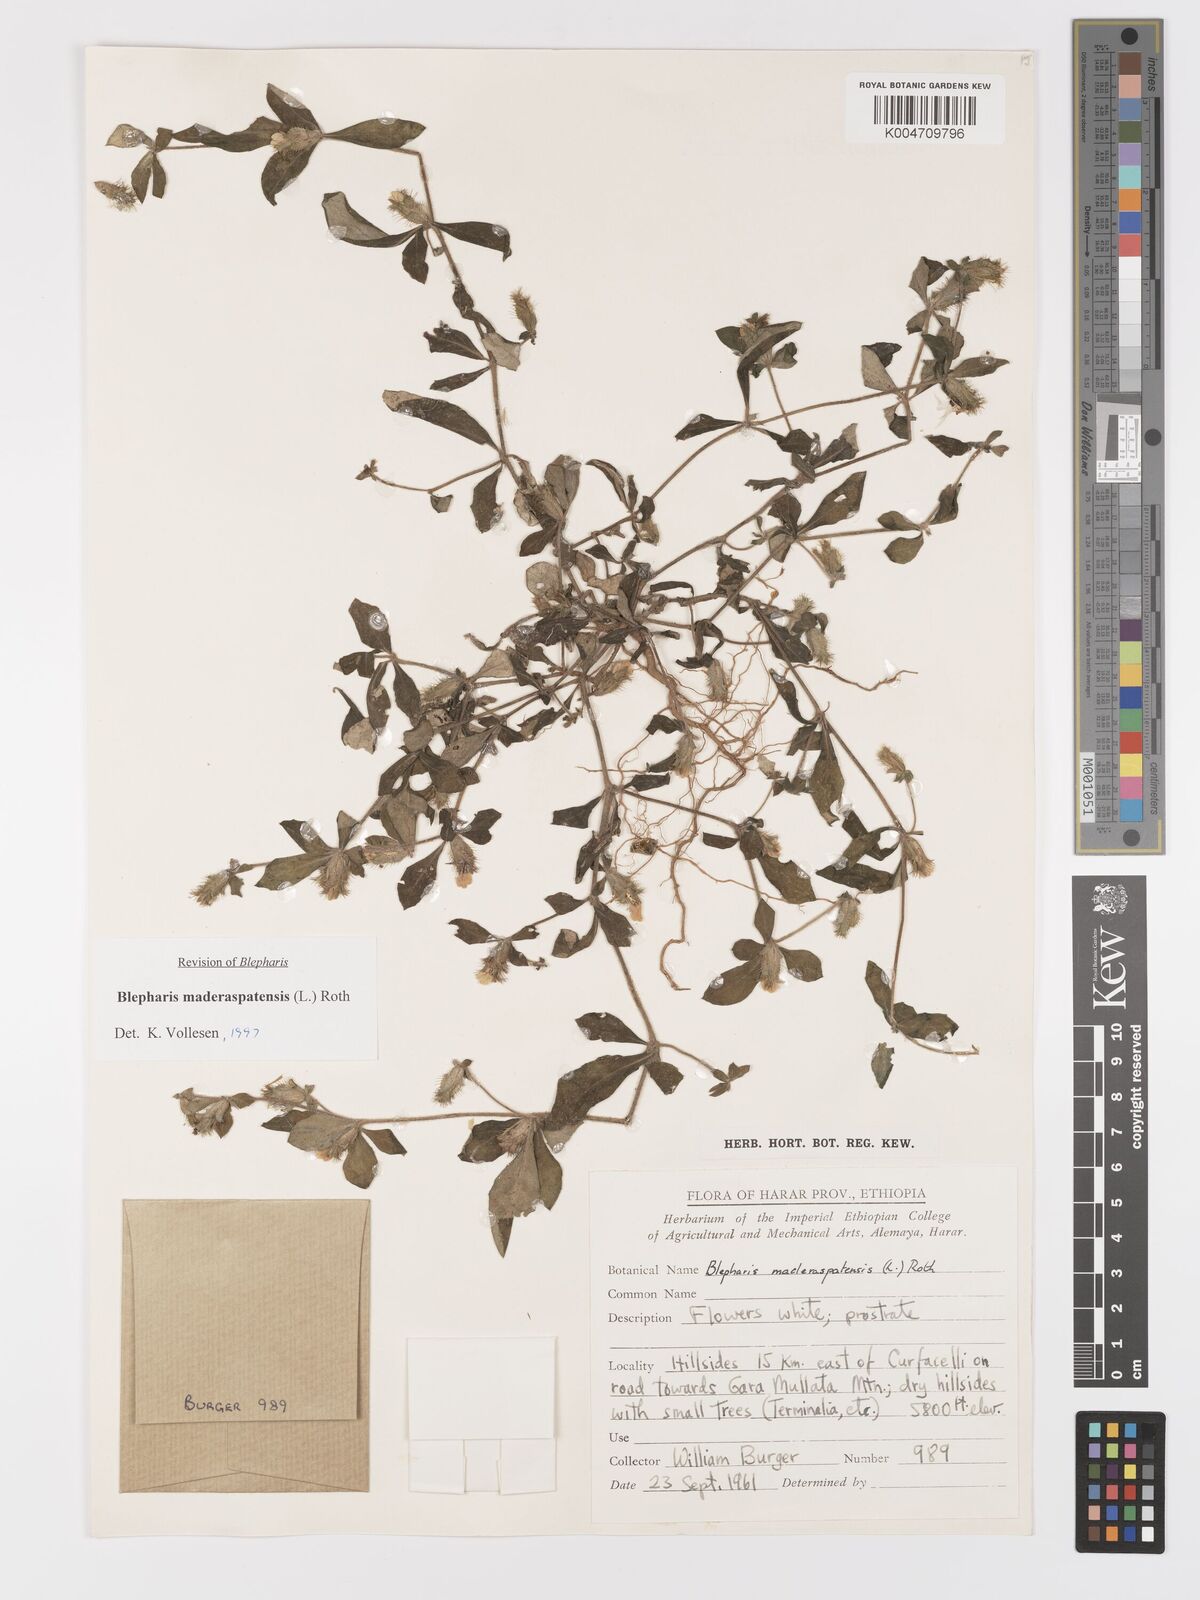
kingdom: Plantae
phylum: Tracheophyta
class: Magnoliopsida
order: Lamiales
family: Acanthaceae
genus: Blepharis
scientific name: Blepharis maderaspatensis
